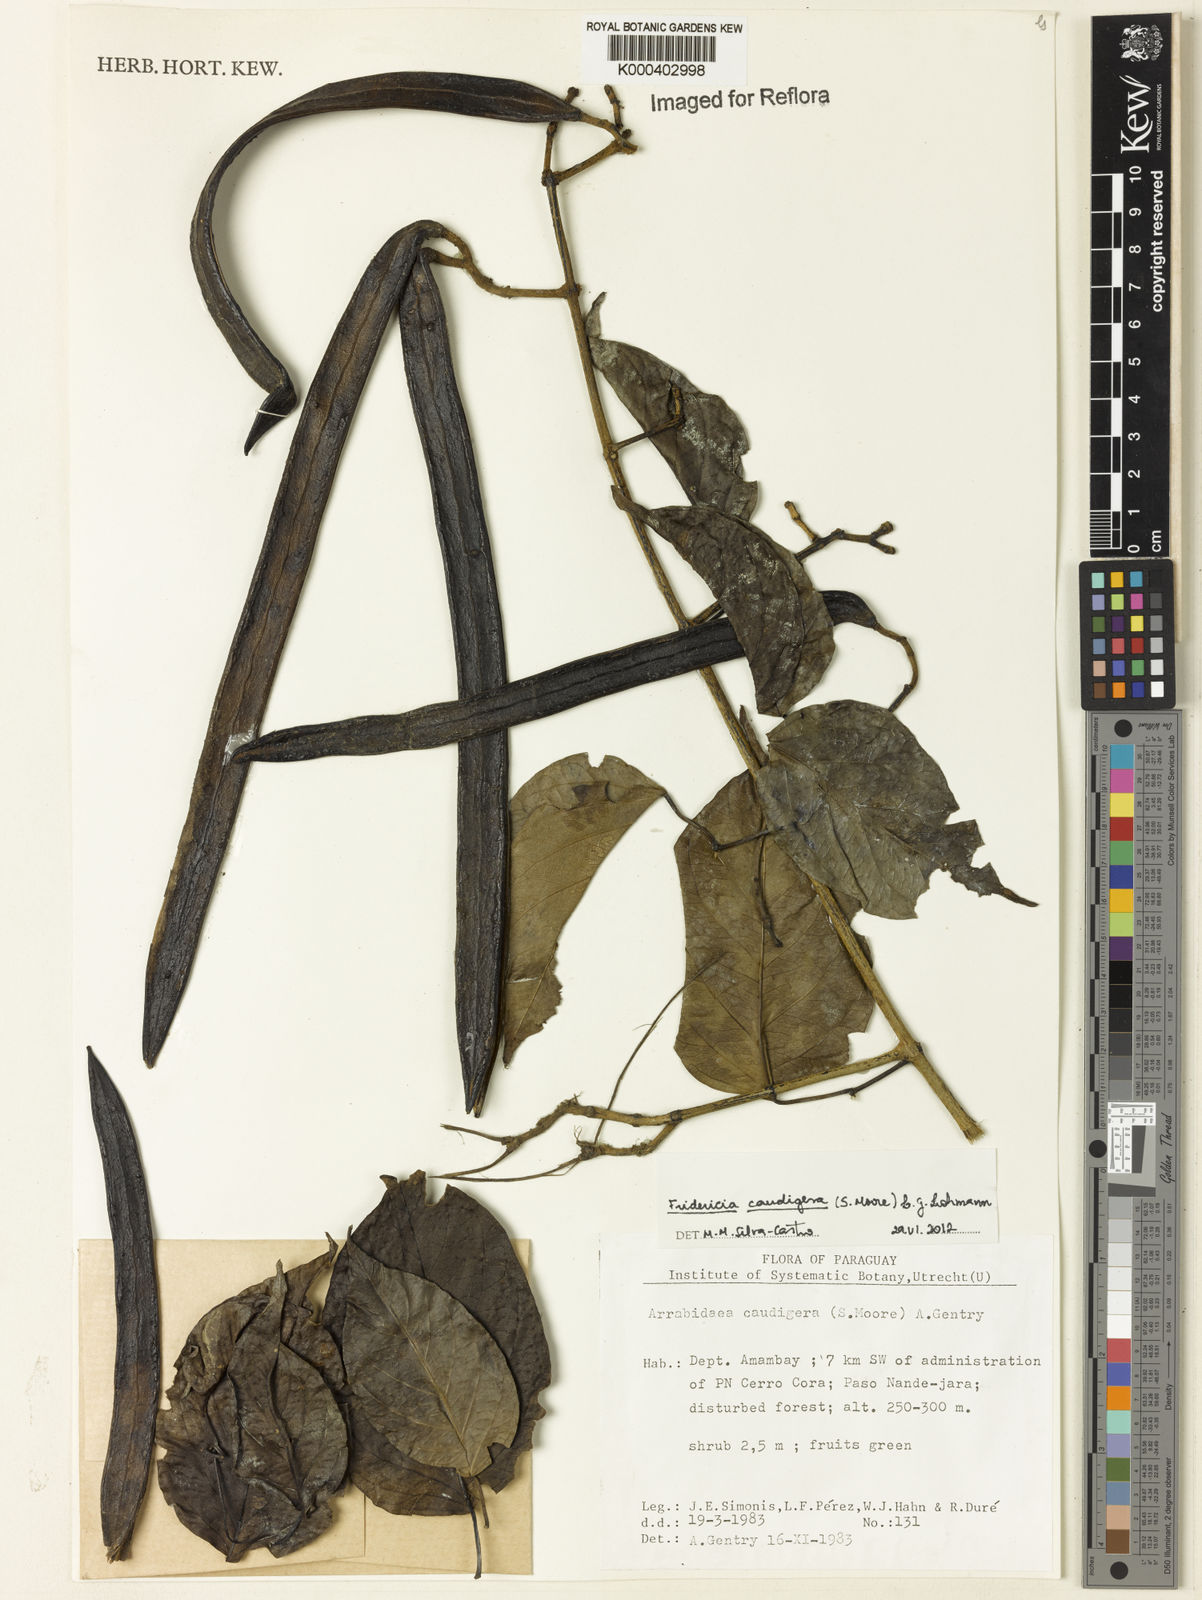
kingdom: Plantae
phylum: Tracheophyta
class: Magnoliopsida
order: Lamiales
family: Bignoniaceae
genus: Fridericia
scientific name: Fridericia caudigera
